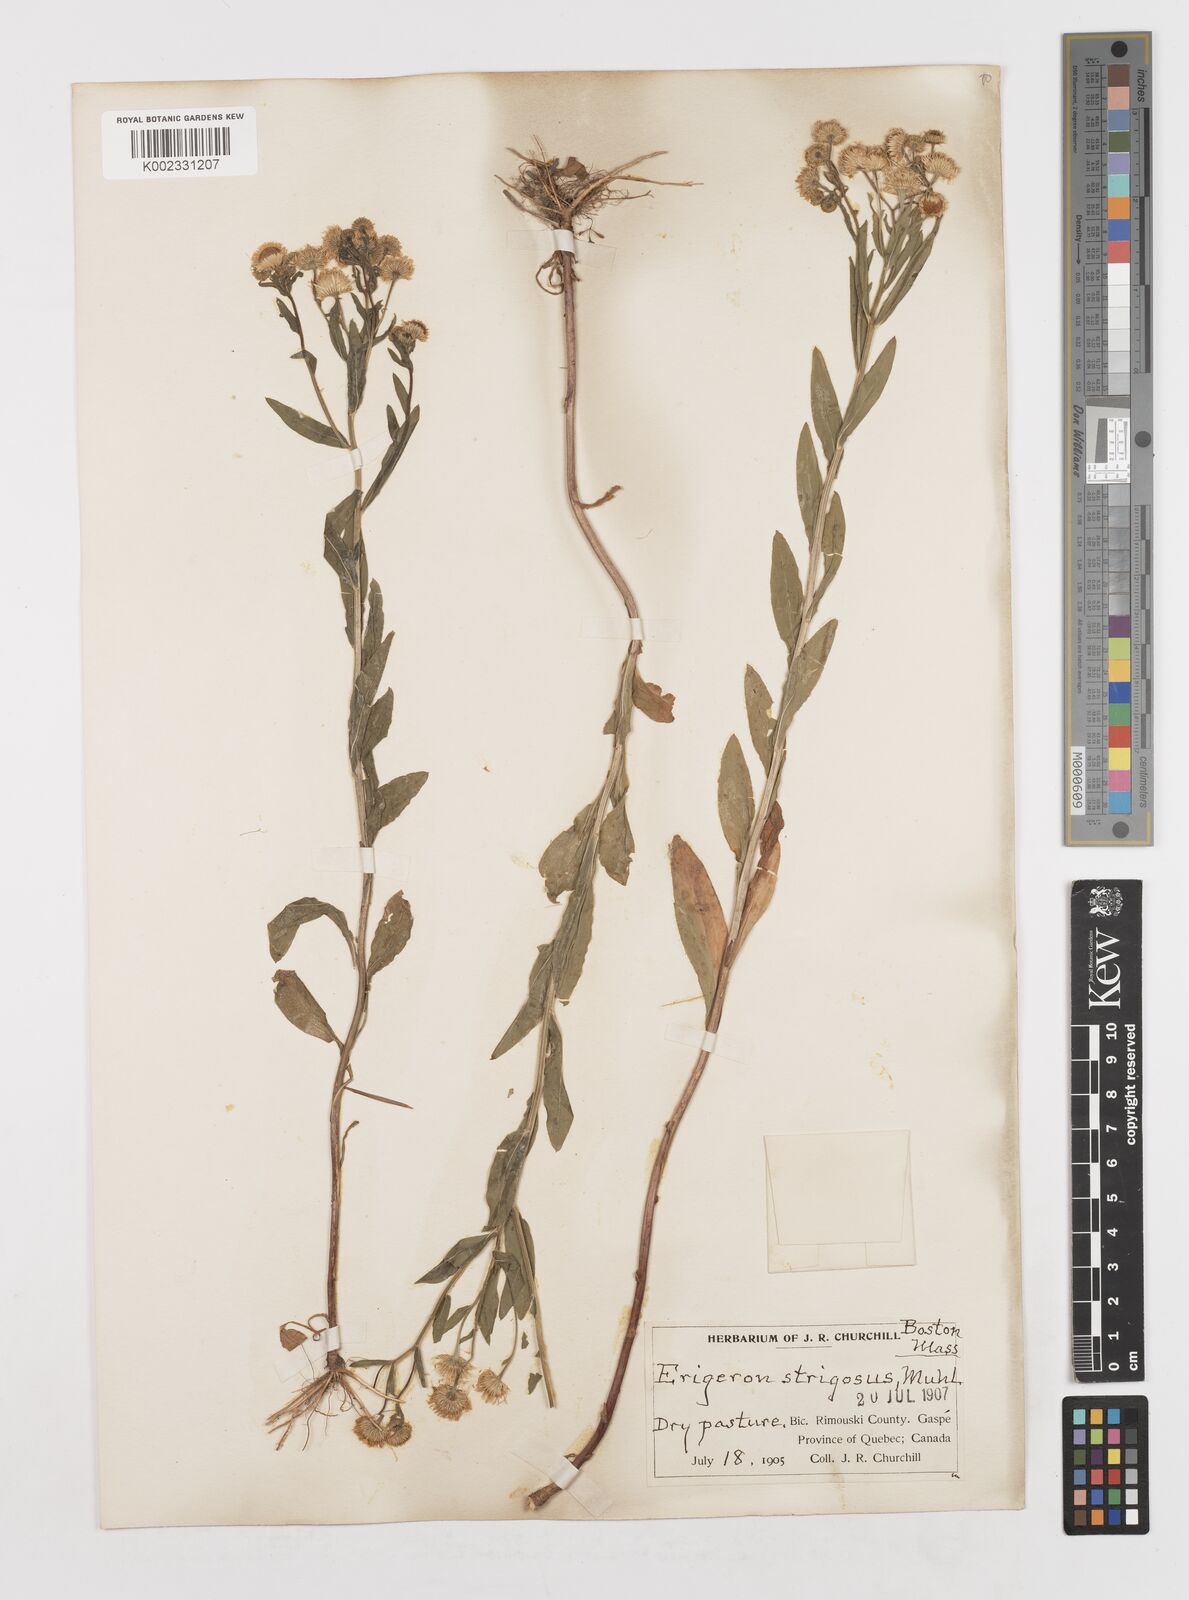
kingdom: Plantae
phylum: Tracheophyta
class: Magnoliopsida
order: Asterales
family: Asteraceae
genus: Erigeron
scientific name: Erigeron annuus
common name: Tall fleabane
